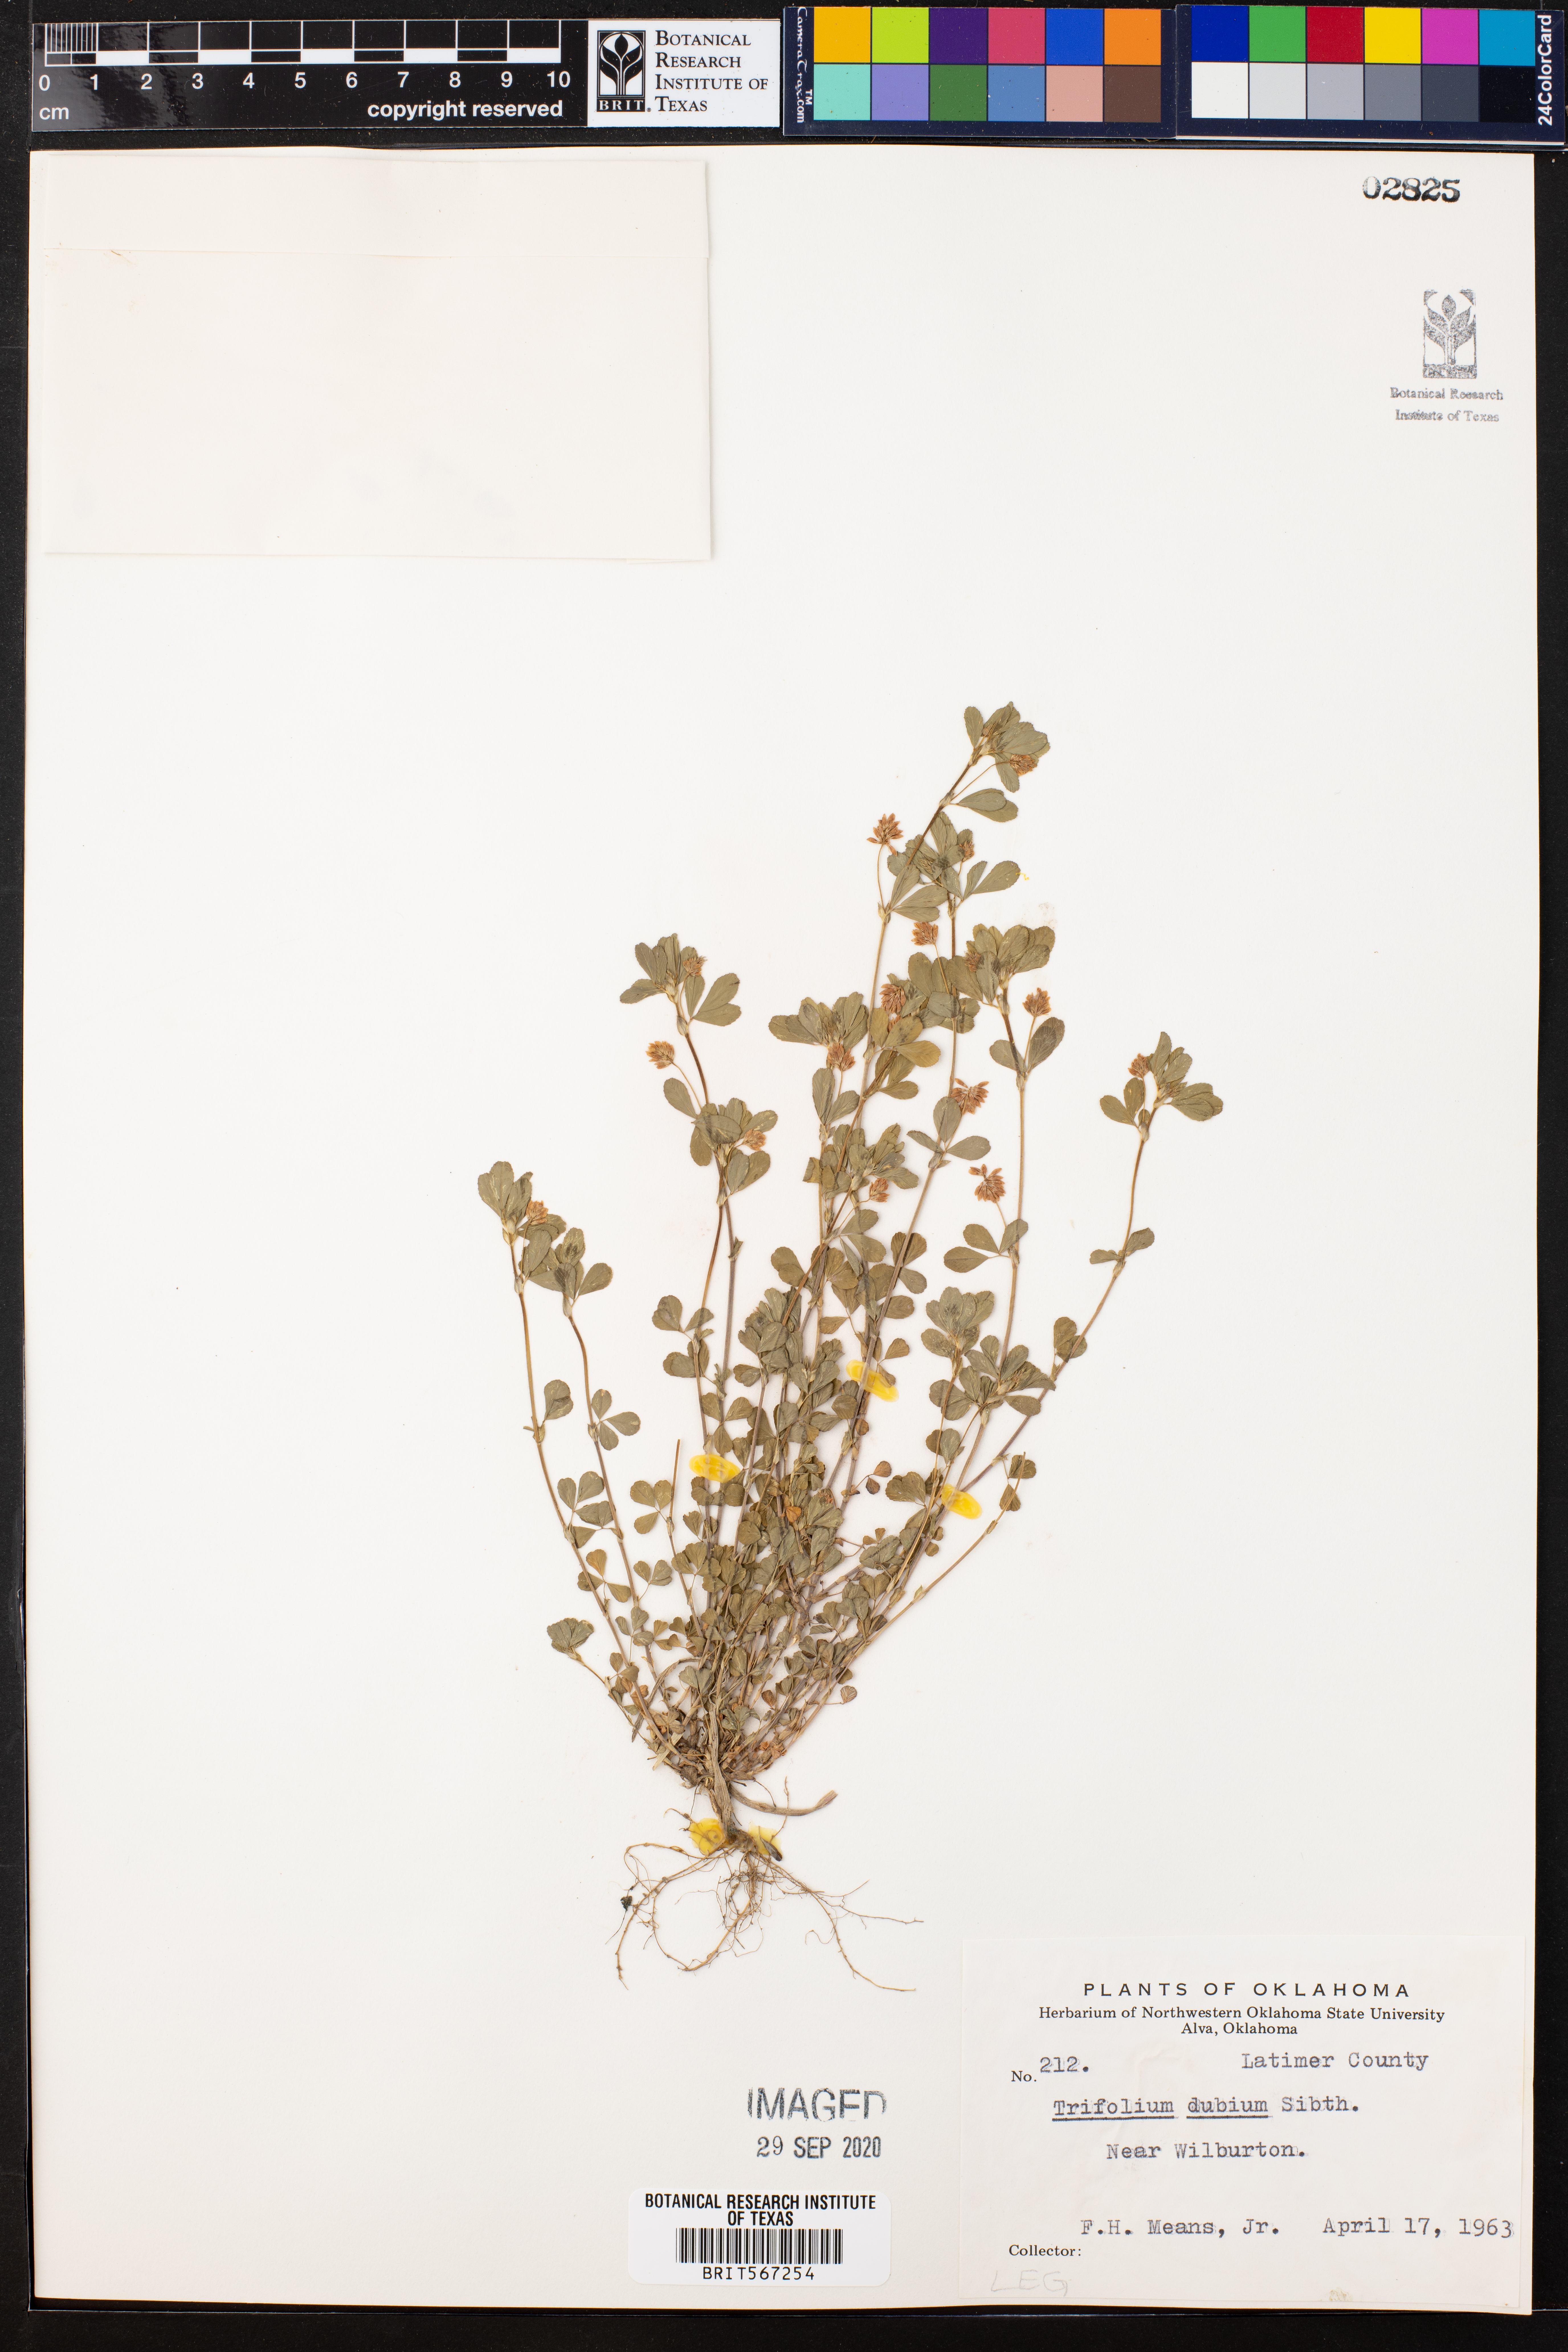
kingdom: Plantae
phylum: Tracheophyta
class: Magnoliopsida
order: Fabales
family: Fabaceae
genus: Trifolium
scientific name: Trifolium dubium
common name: Suckling clover
